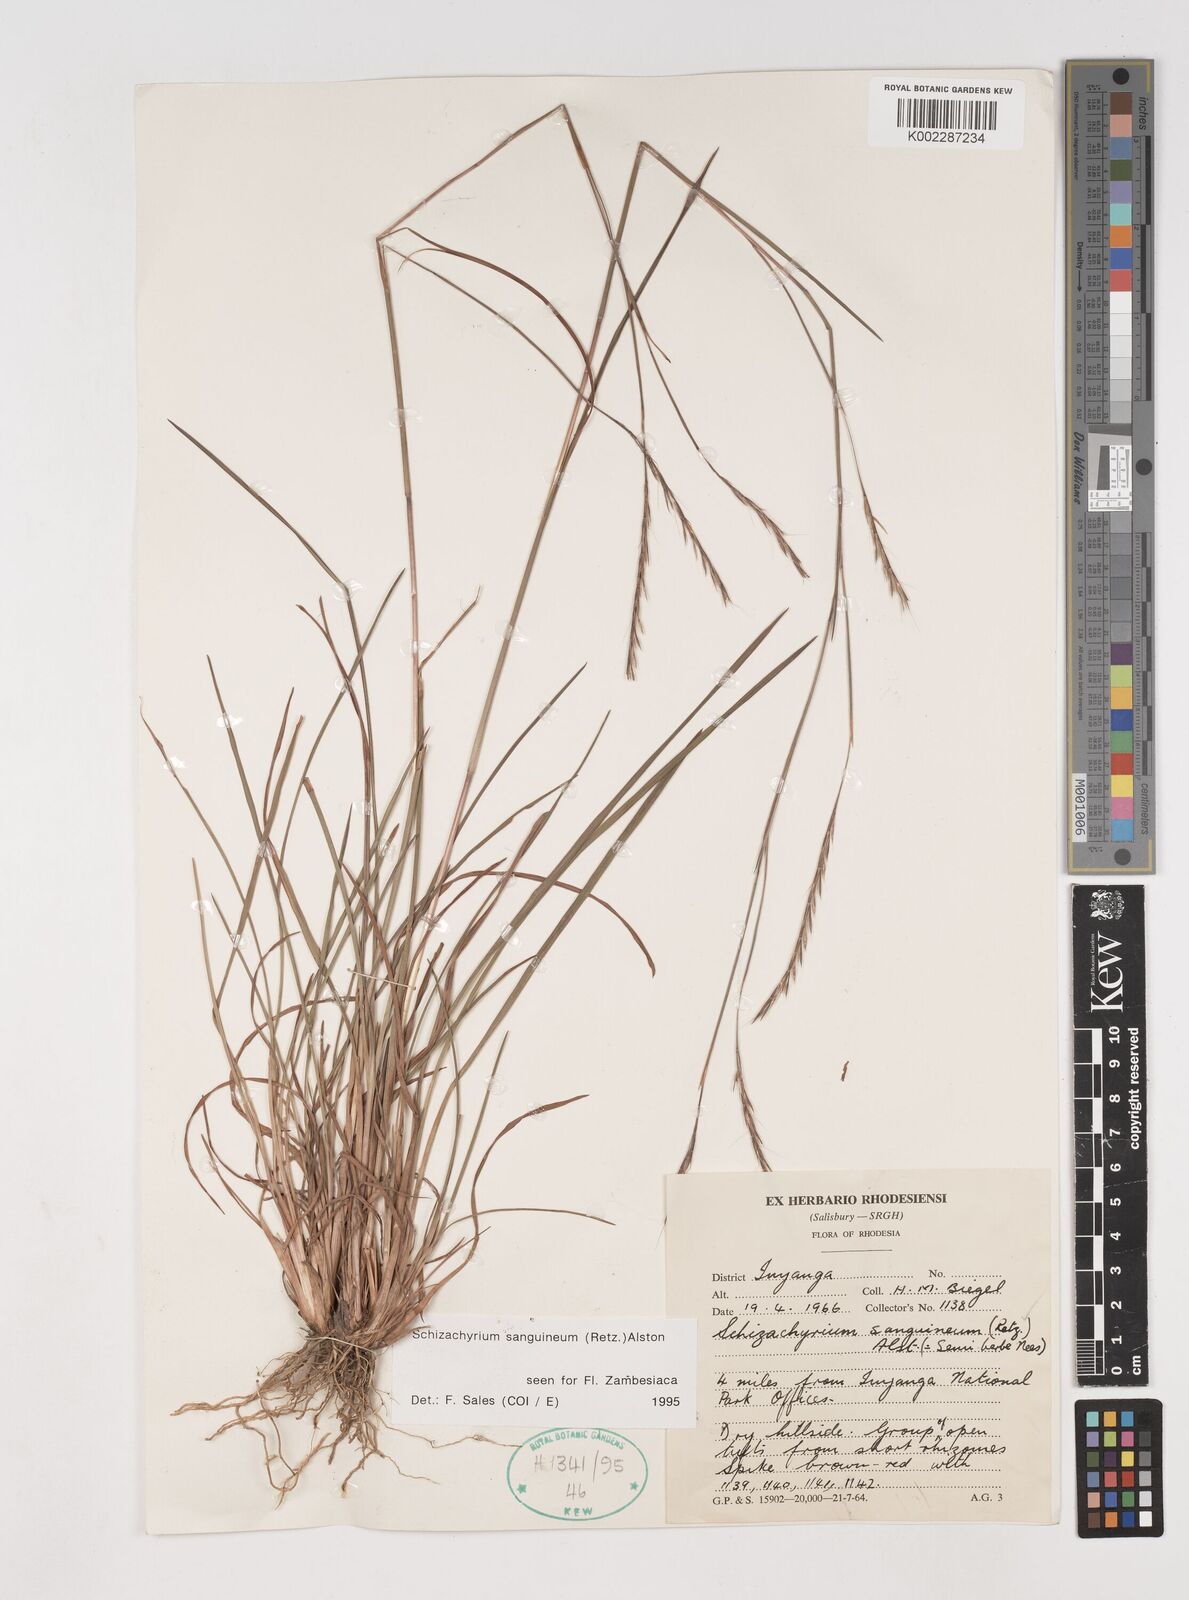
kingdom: Plantae
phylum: Tracheophyta
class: Liliopsida
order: Poales
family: Poaceae
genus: Schizachyrium
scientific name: Schizachyrium sanguineum
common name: Crimson bluestem
